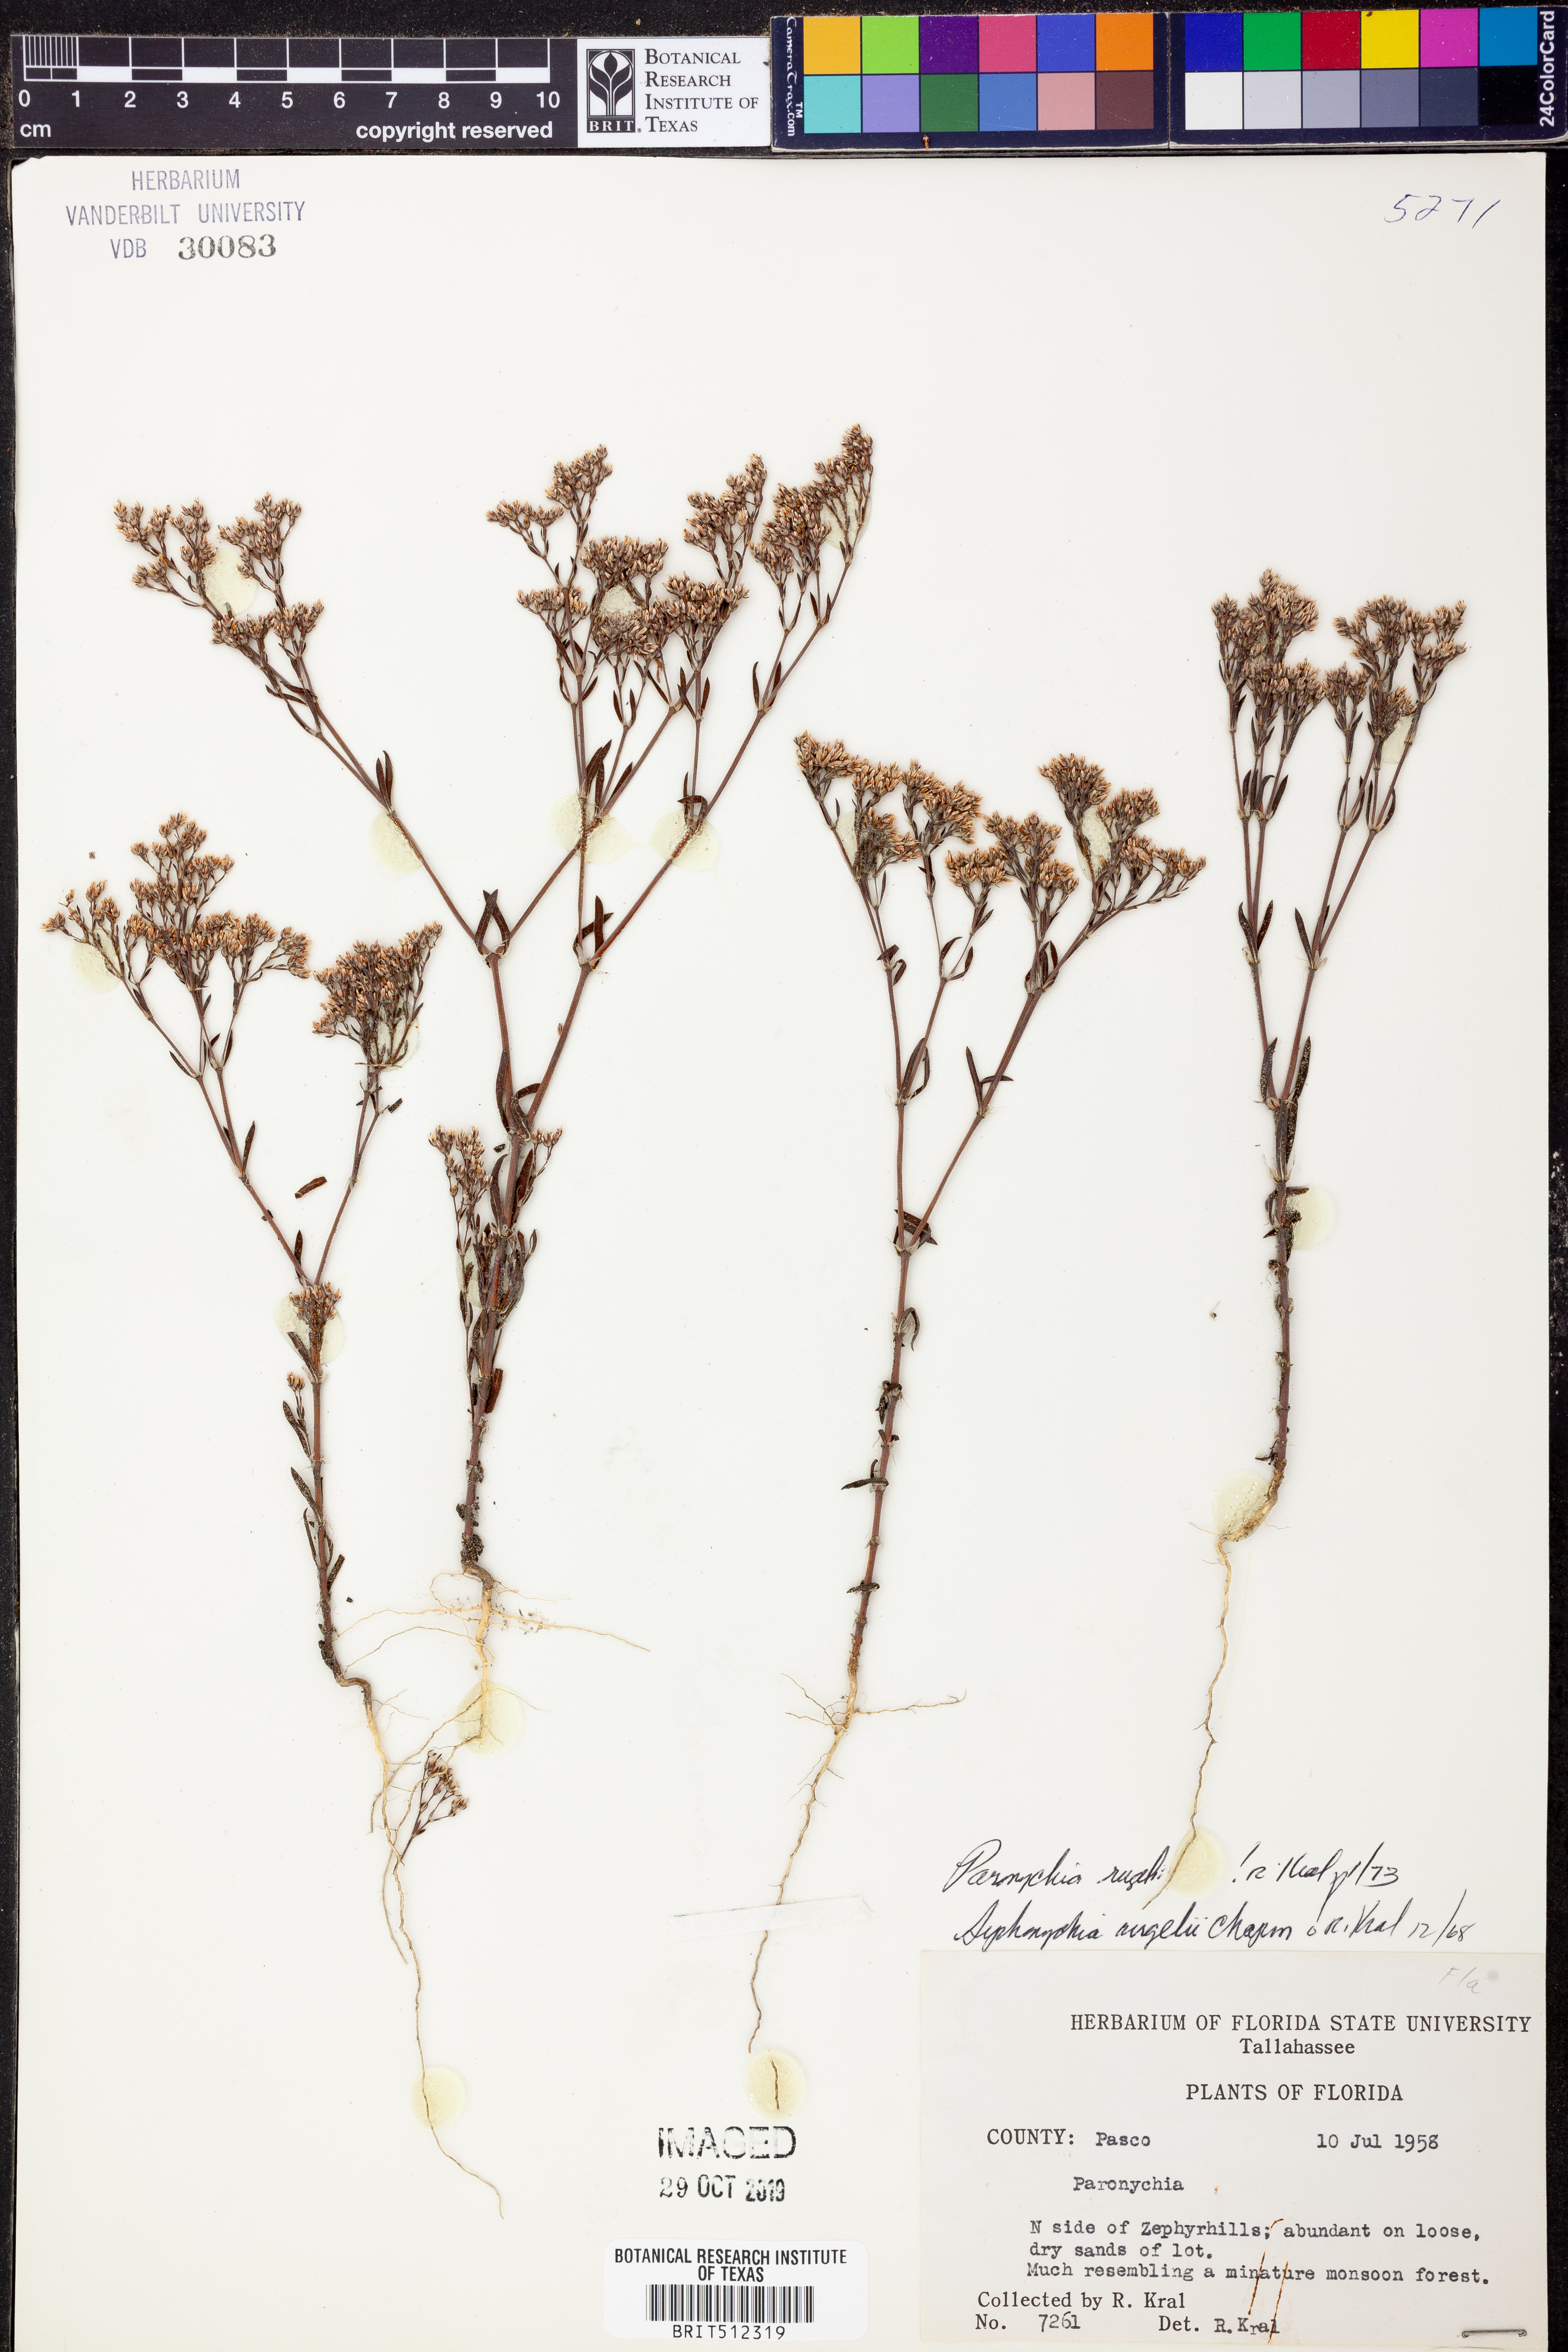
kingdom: Plantae
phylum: Tracheophyta
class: Magnoliopsida
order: Caryophyllales
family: Caryophyllaceae
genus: Paronychia
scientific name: Paronychia rugelii
